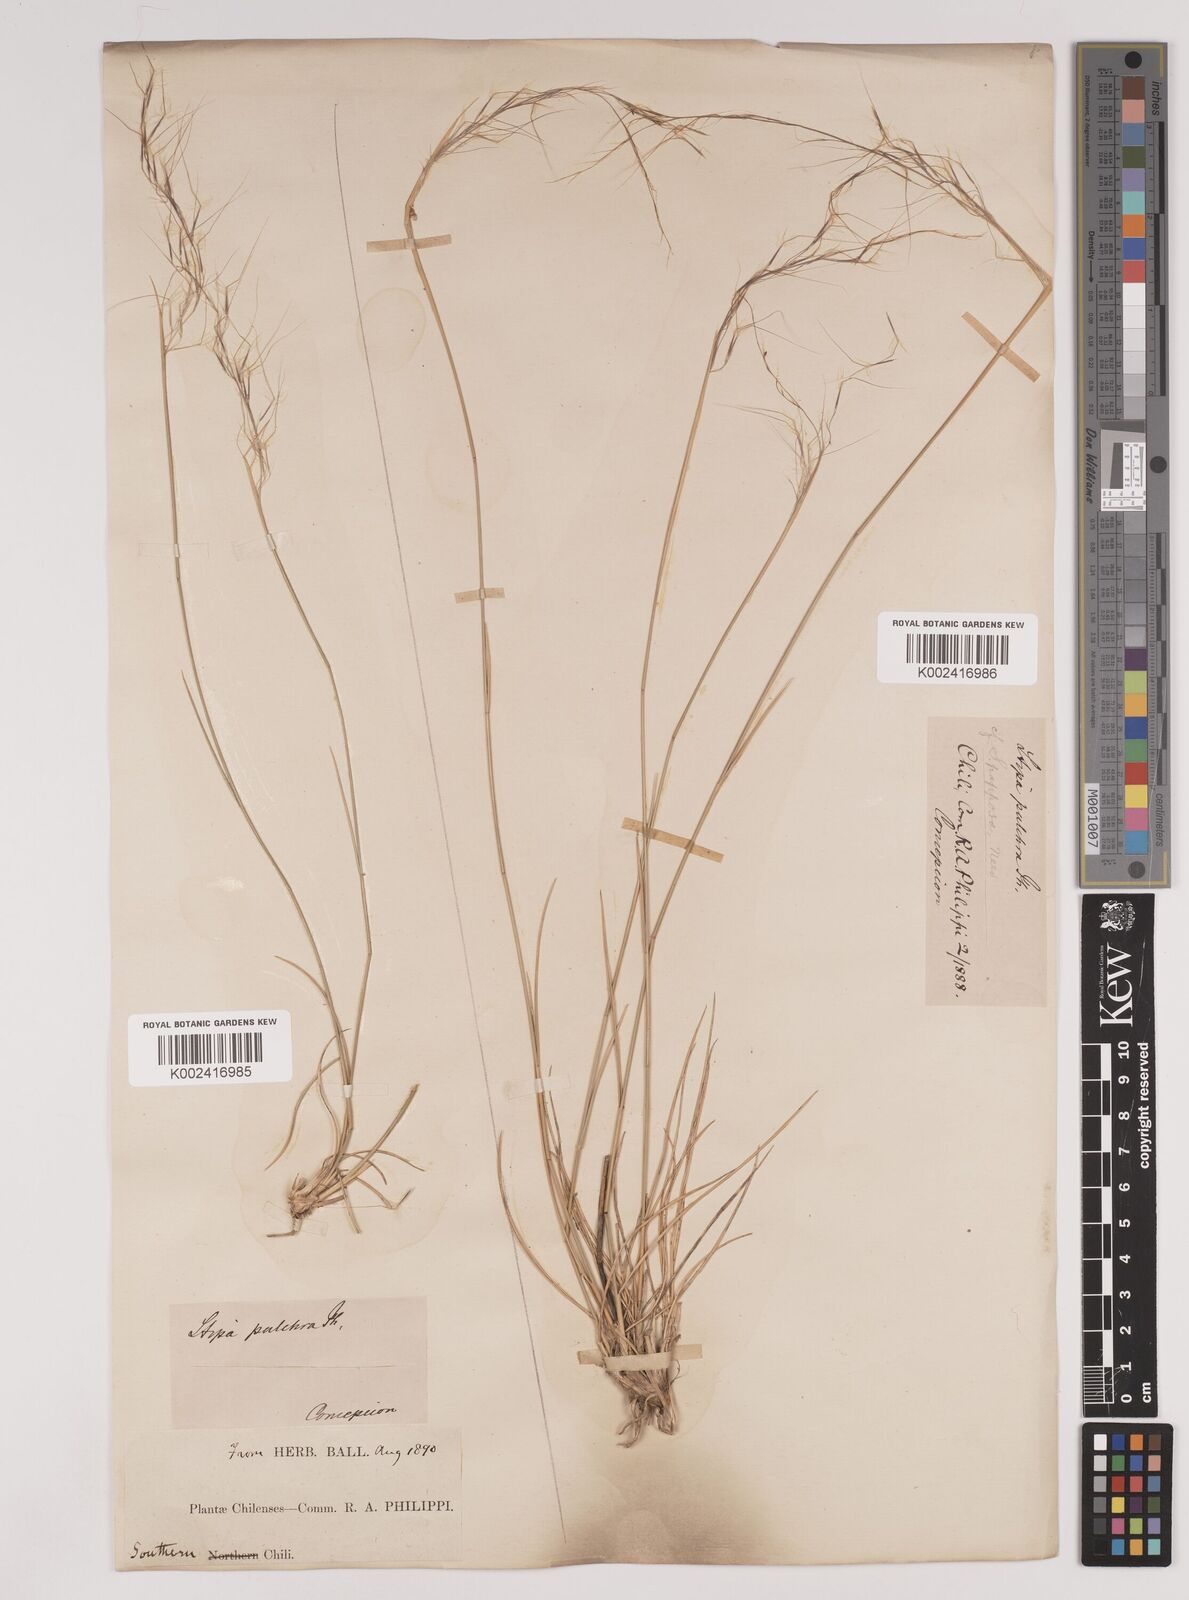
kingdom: Plantae
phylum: Tracheophyta
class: Liliopsida
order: Poales
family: Poaceae
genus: Jarava
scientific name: Jarava plumosa
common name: South american rice grass
